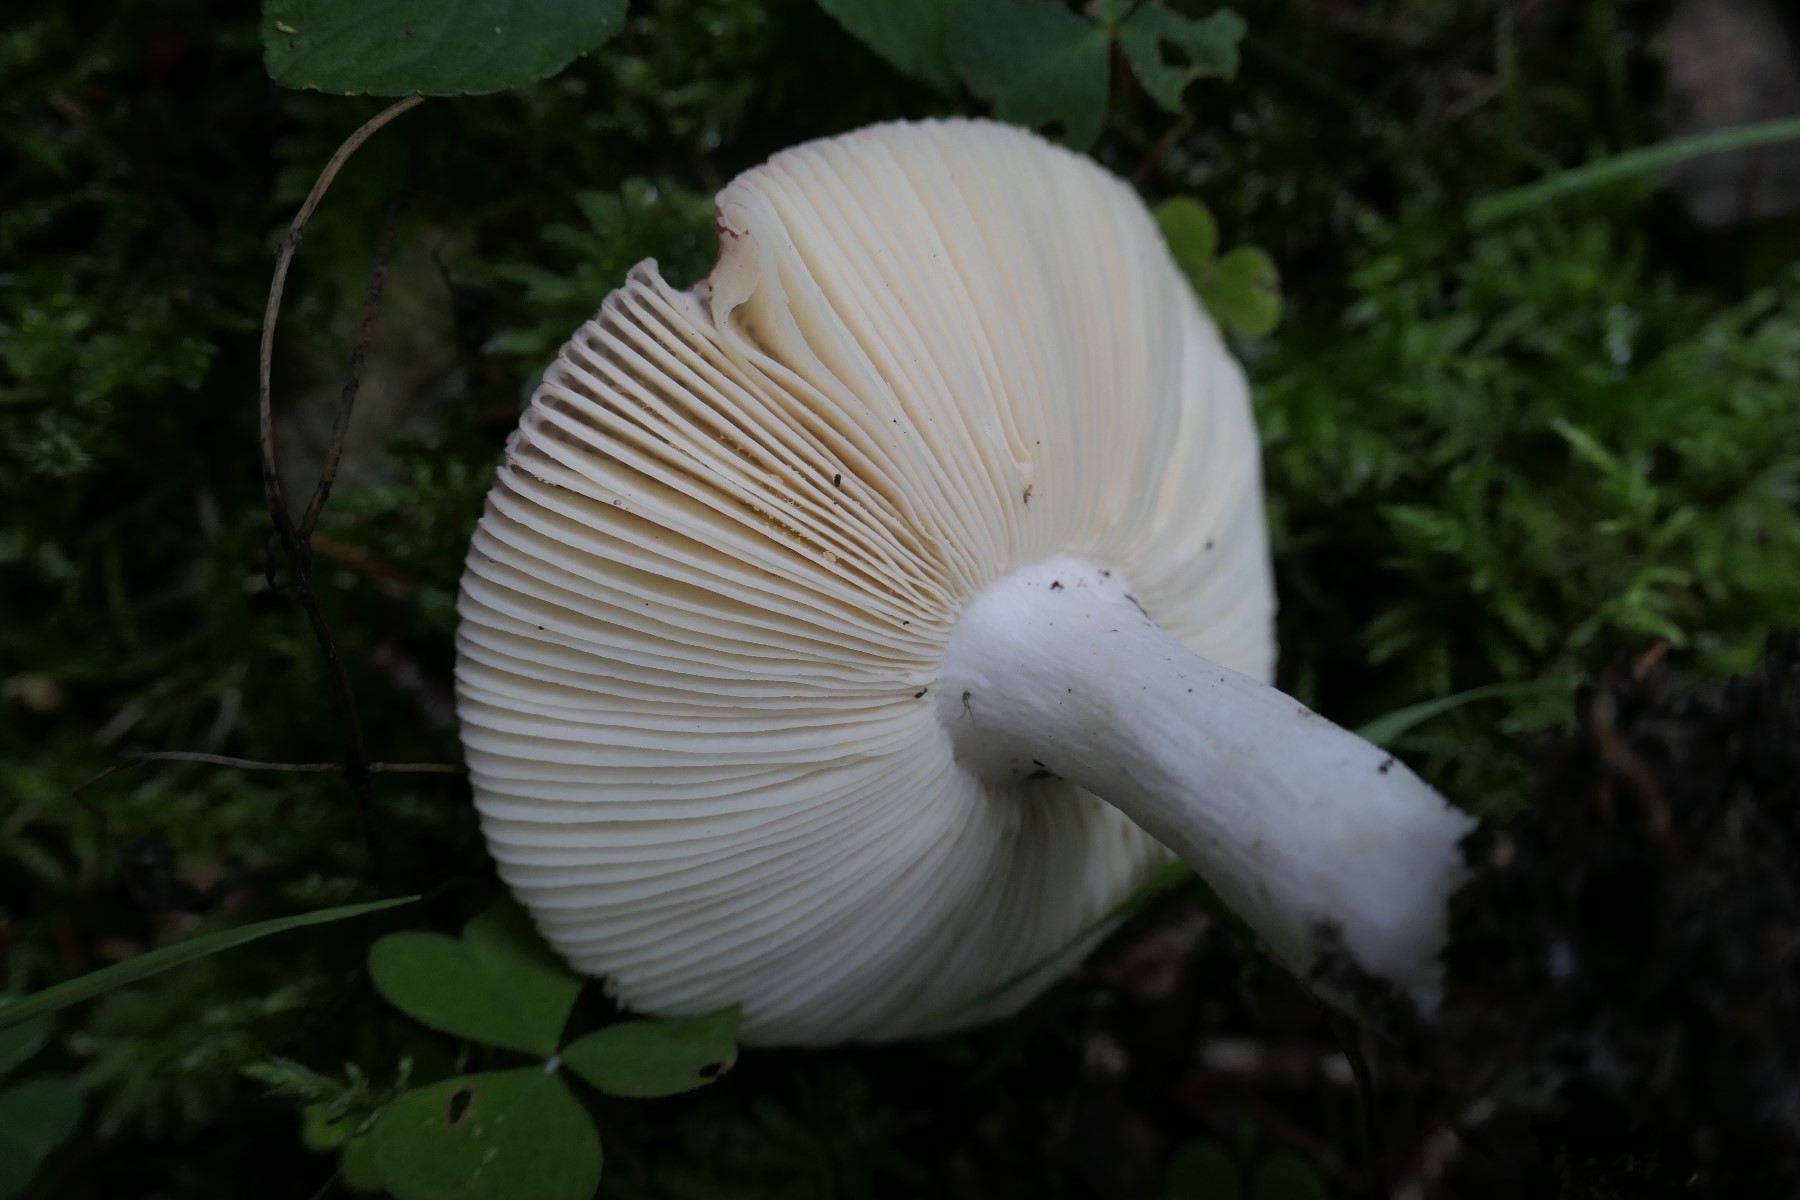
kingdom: Fungi
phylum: Basidiomycota
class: Agaricomycetes
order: Russulales
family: Russulaceae
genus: Russula
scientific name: Russula velenovskyi
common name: orangerød skørhat
